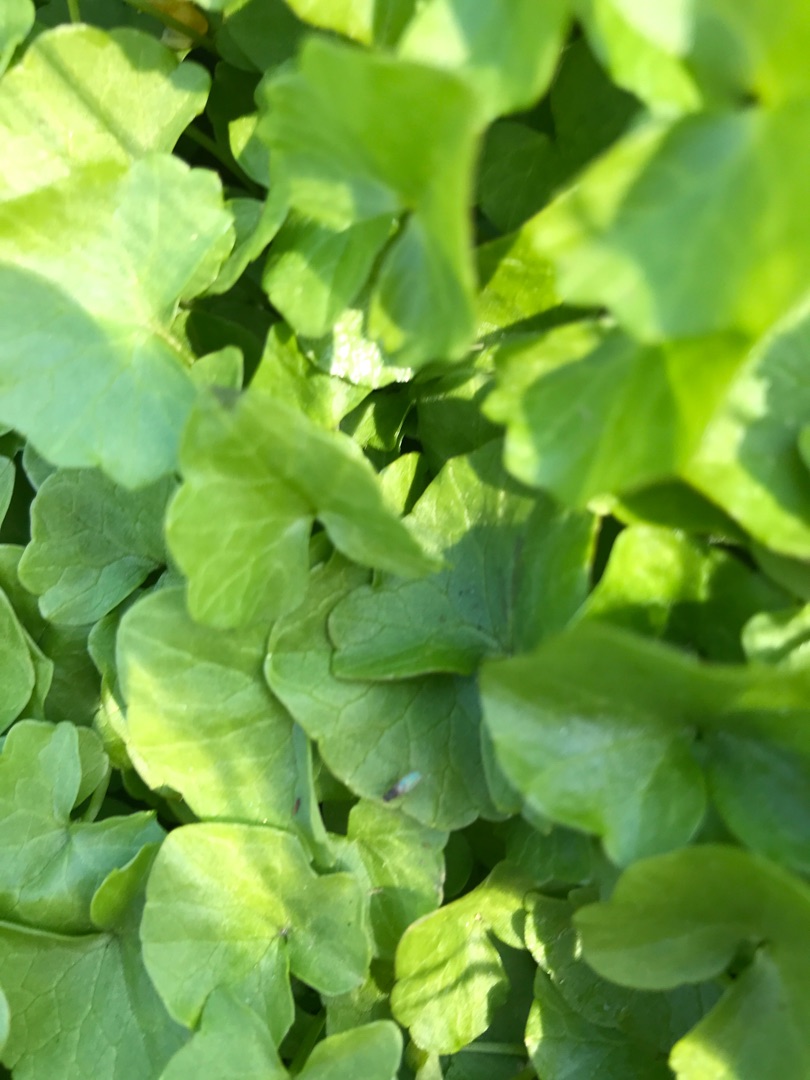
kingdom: Plantae
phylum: Tracheophyta
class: Magnoliopsida
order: Ranunculales
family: Ranunculaceae
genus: Ficaria
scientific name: Ficaria verna
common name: Vorterod
